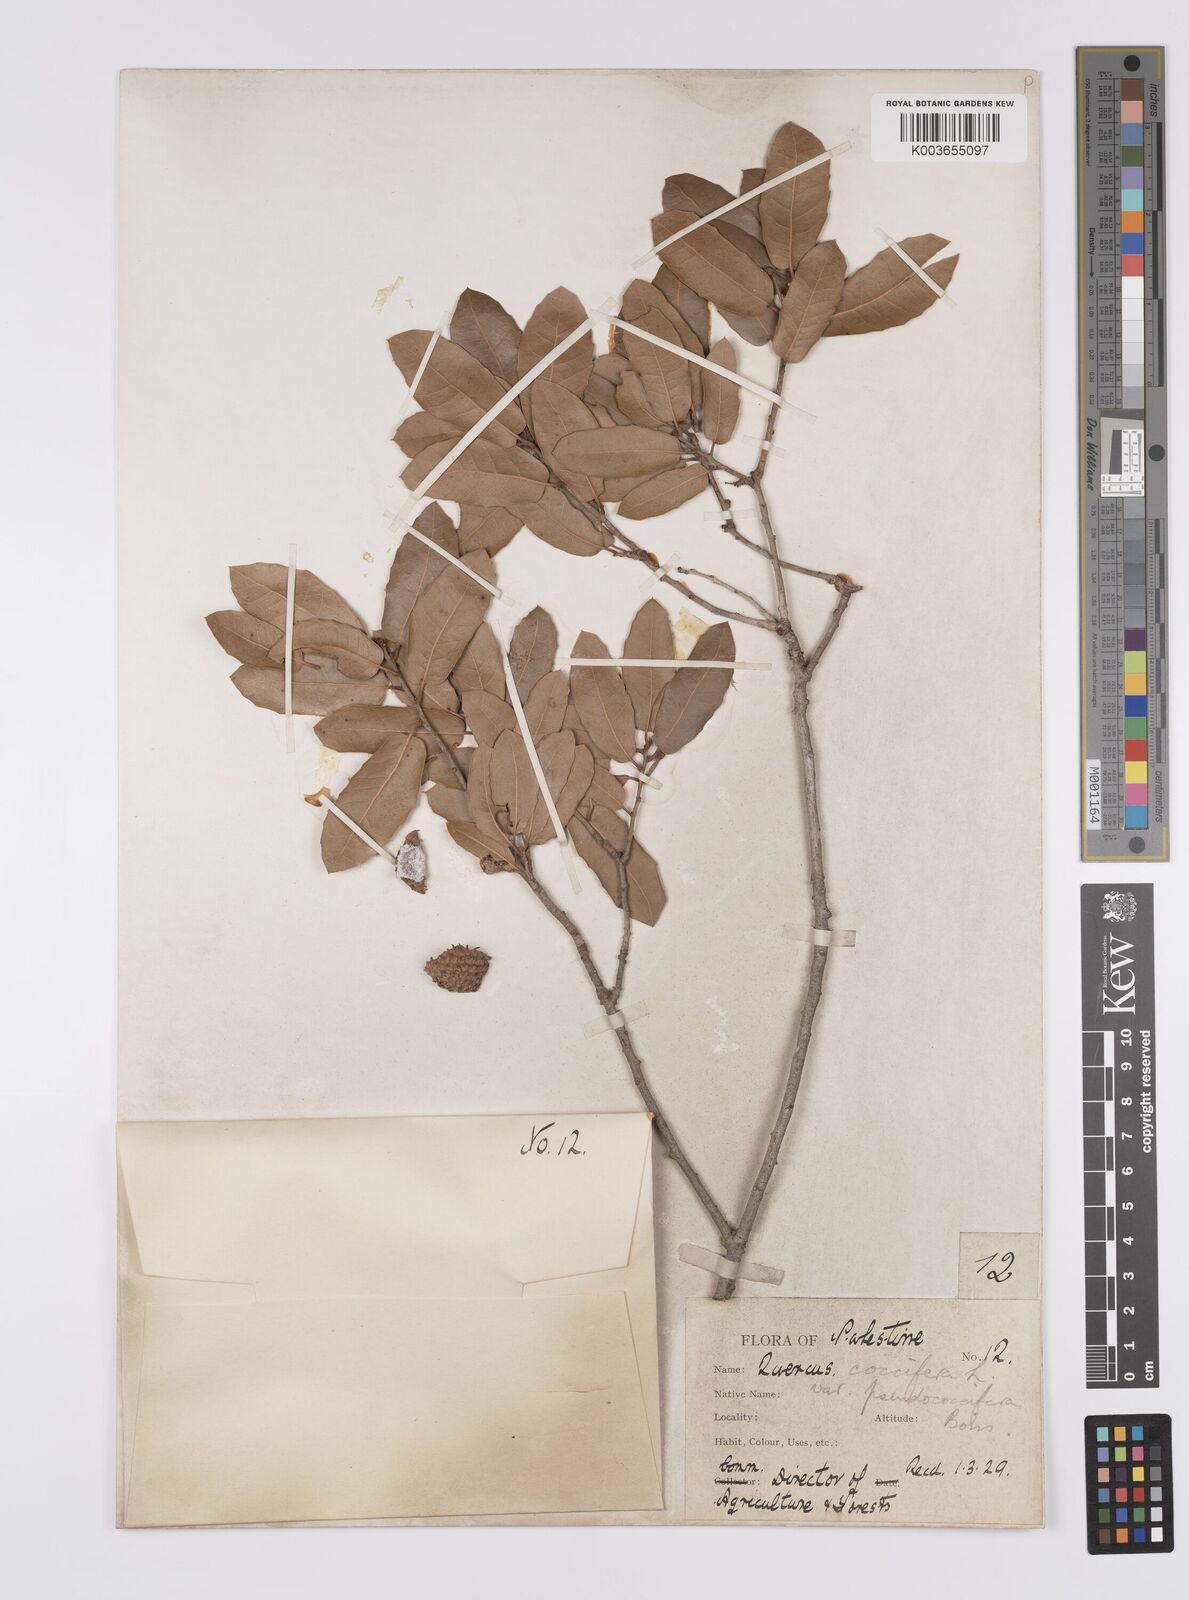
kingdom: Plantae
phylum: Tracheophyta
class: Magnoliopsida
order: Fagales
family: Fagaceae
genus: Quercus
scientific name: Quercus coccifera
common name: Kermes oak
